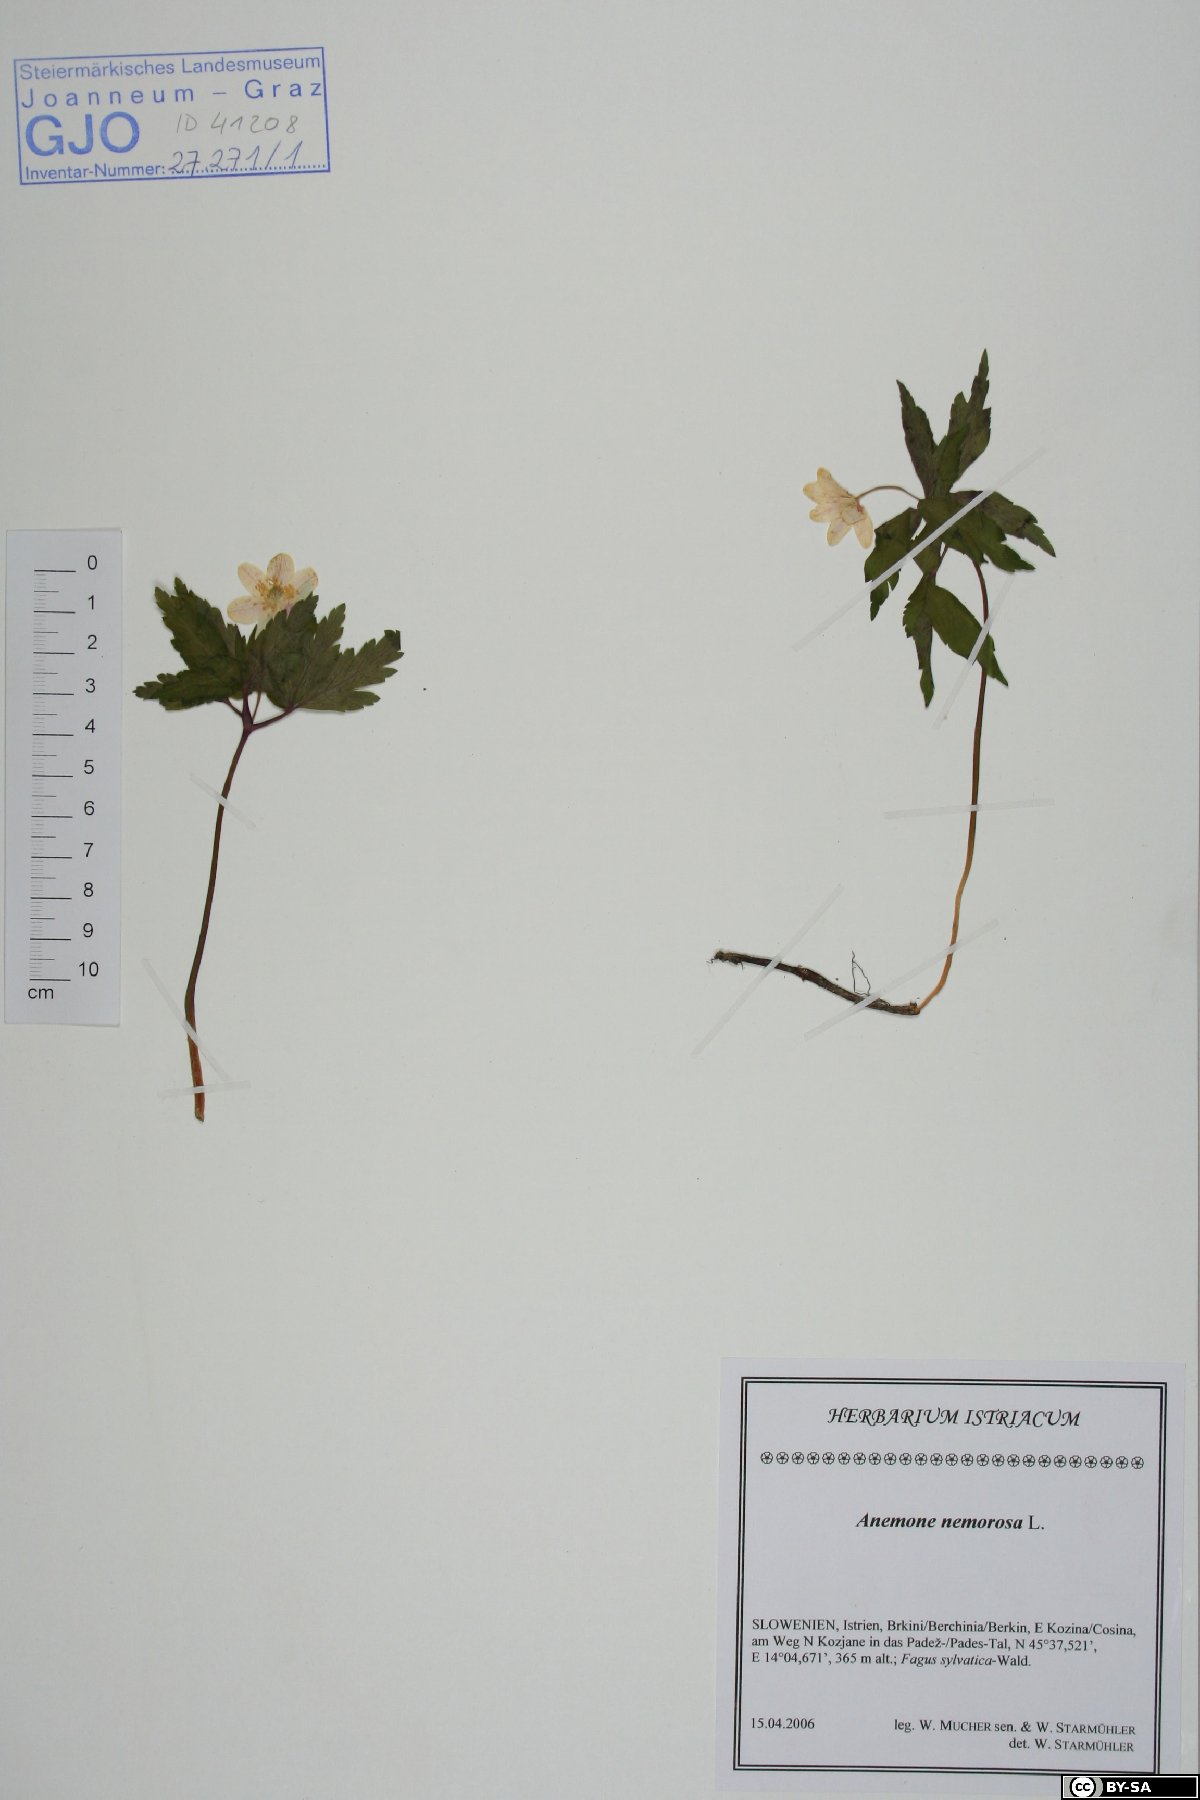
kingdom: Plantae
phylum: Tracheophyta
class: Magnoliopsida
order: Ranunculales
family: Ranunculaceae
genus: Anemone
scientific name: Anemone nemorosa
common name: Wood anemone
